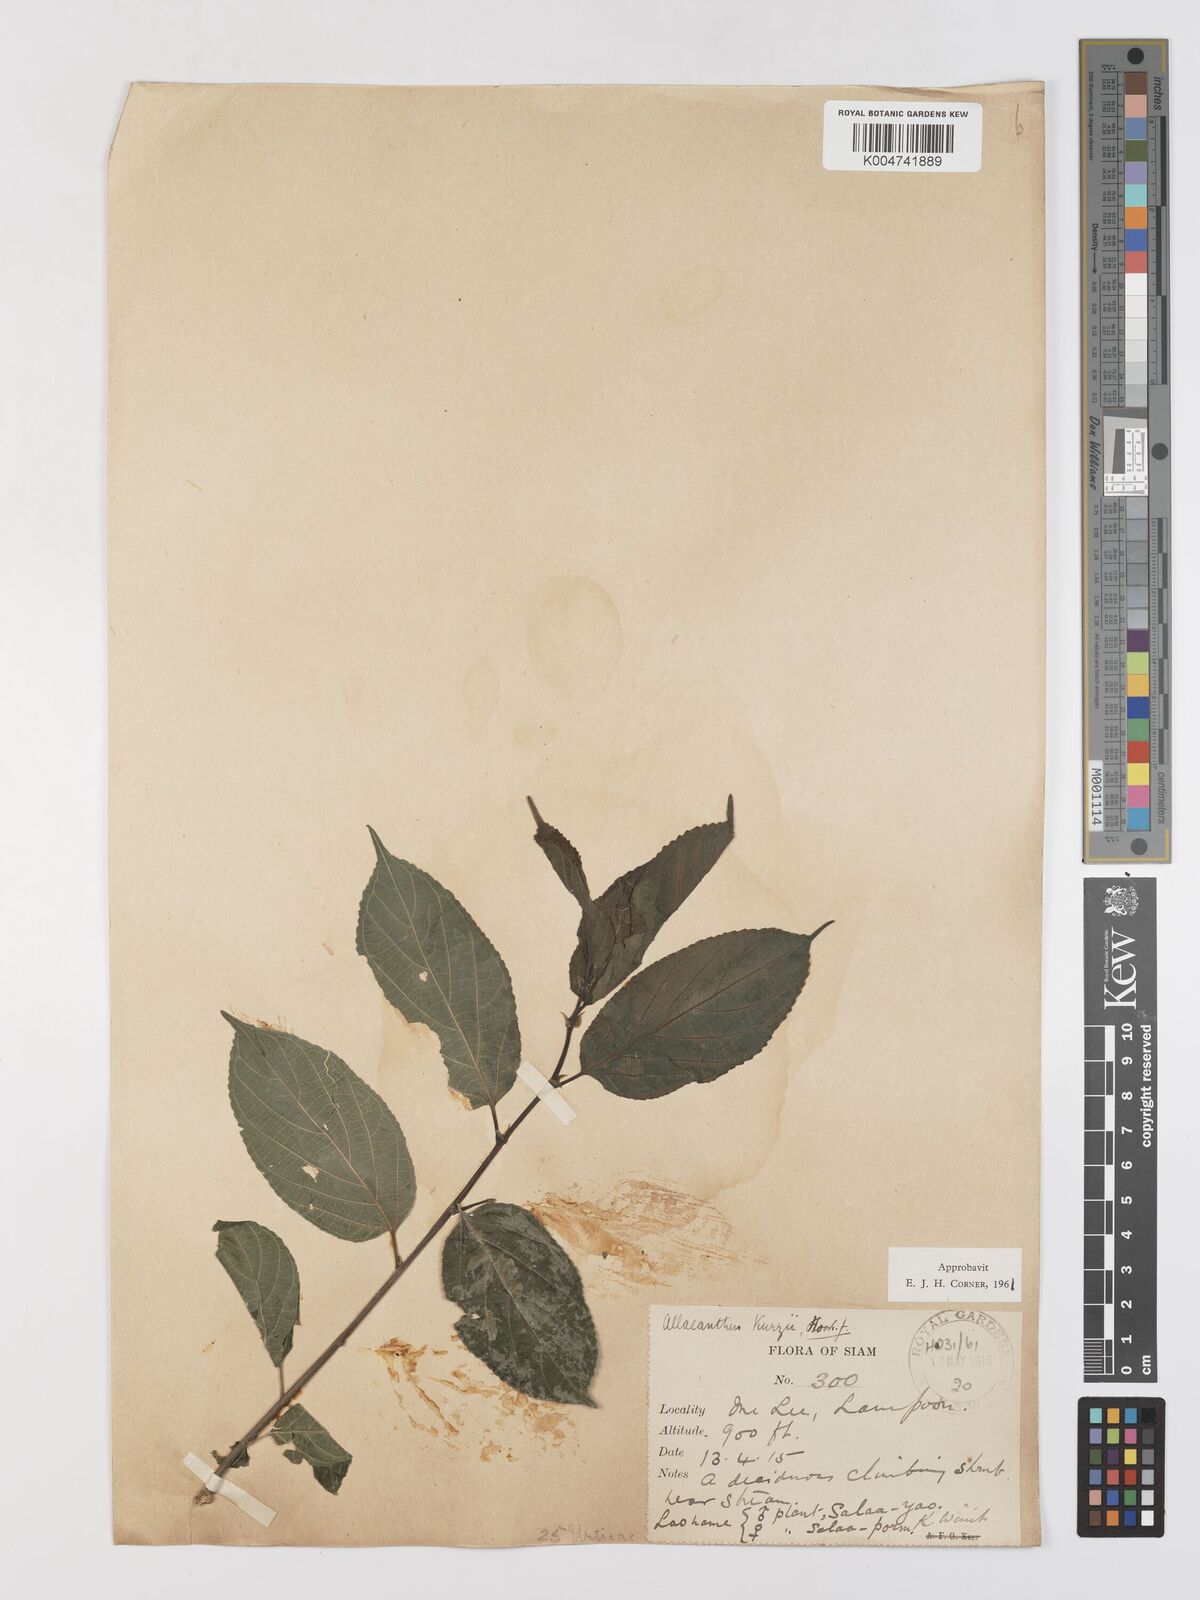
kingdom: Plantae
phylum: Tracheophyta
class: Magnoliopsida
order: Rosales
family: Moraceae
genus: Allaeanthus
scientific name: Allaeanthus kurzii
